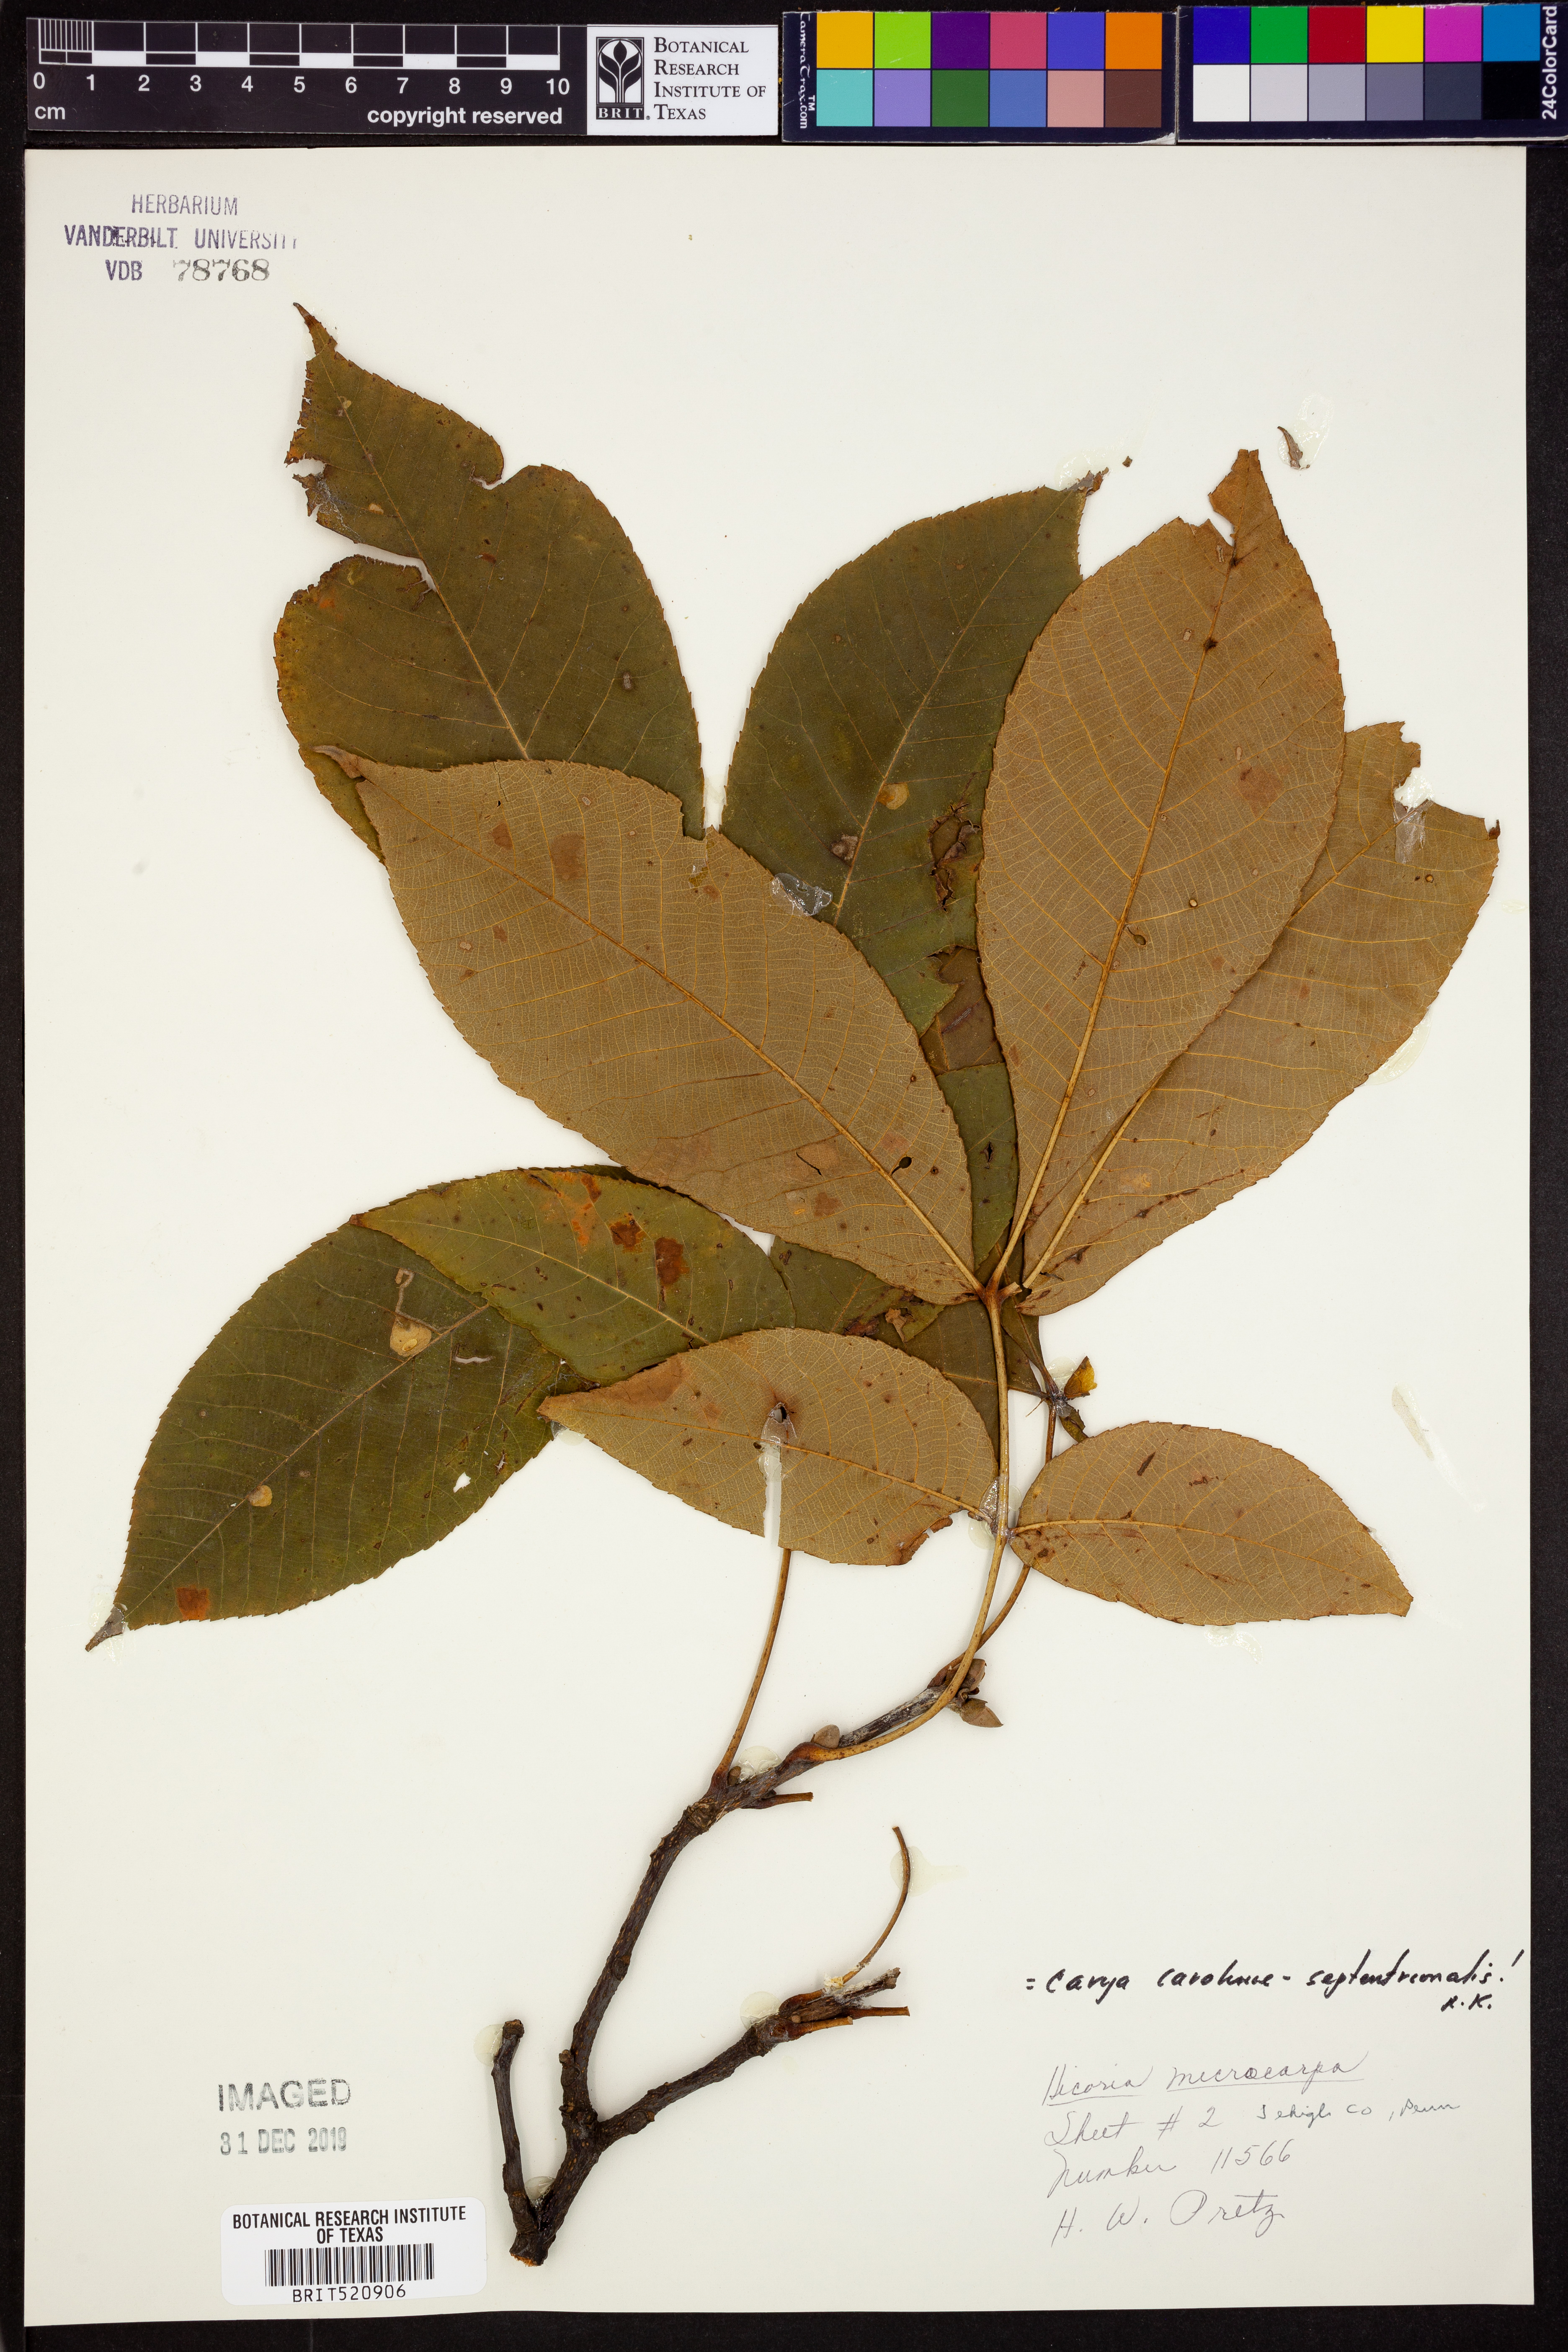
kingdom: Plantae
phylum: Tracheophyta
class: Magnoliopsida
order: Fagales
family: Juglandaceae
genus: Carya
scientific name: Carya carolinae-septentrionalis
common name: Carolina hickory
